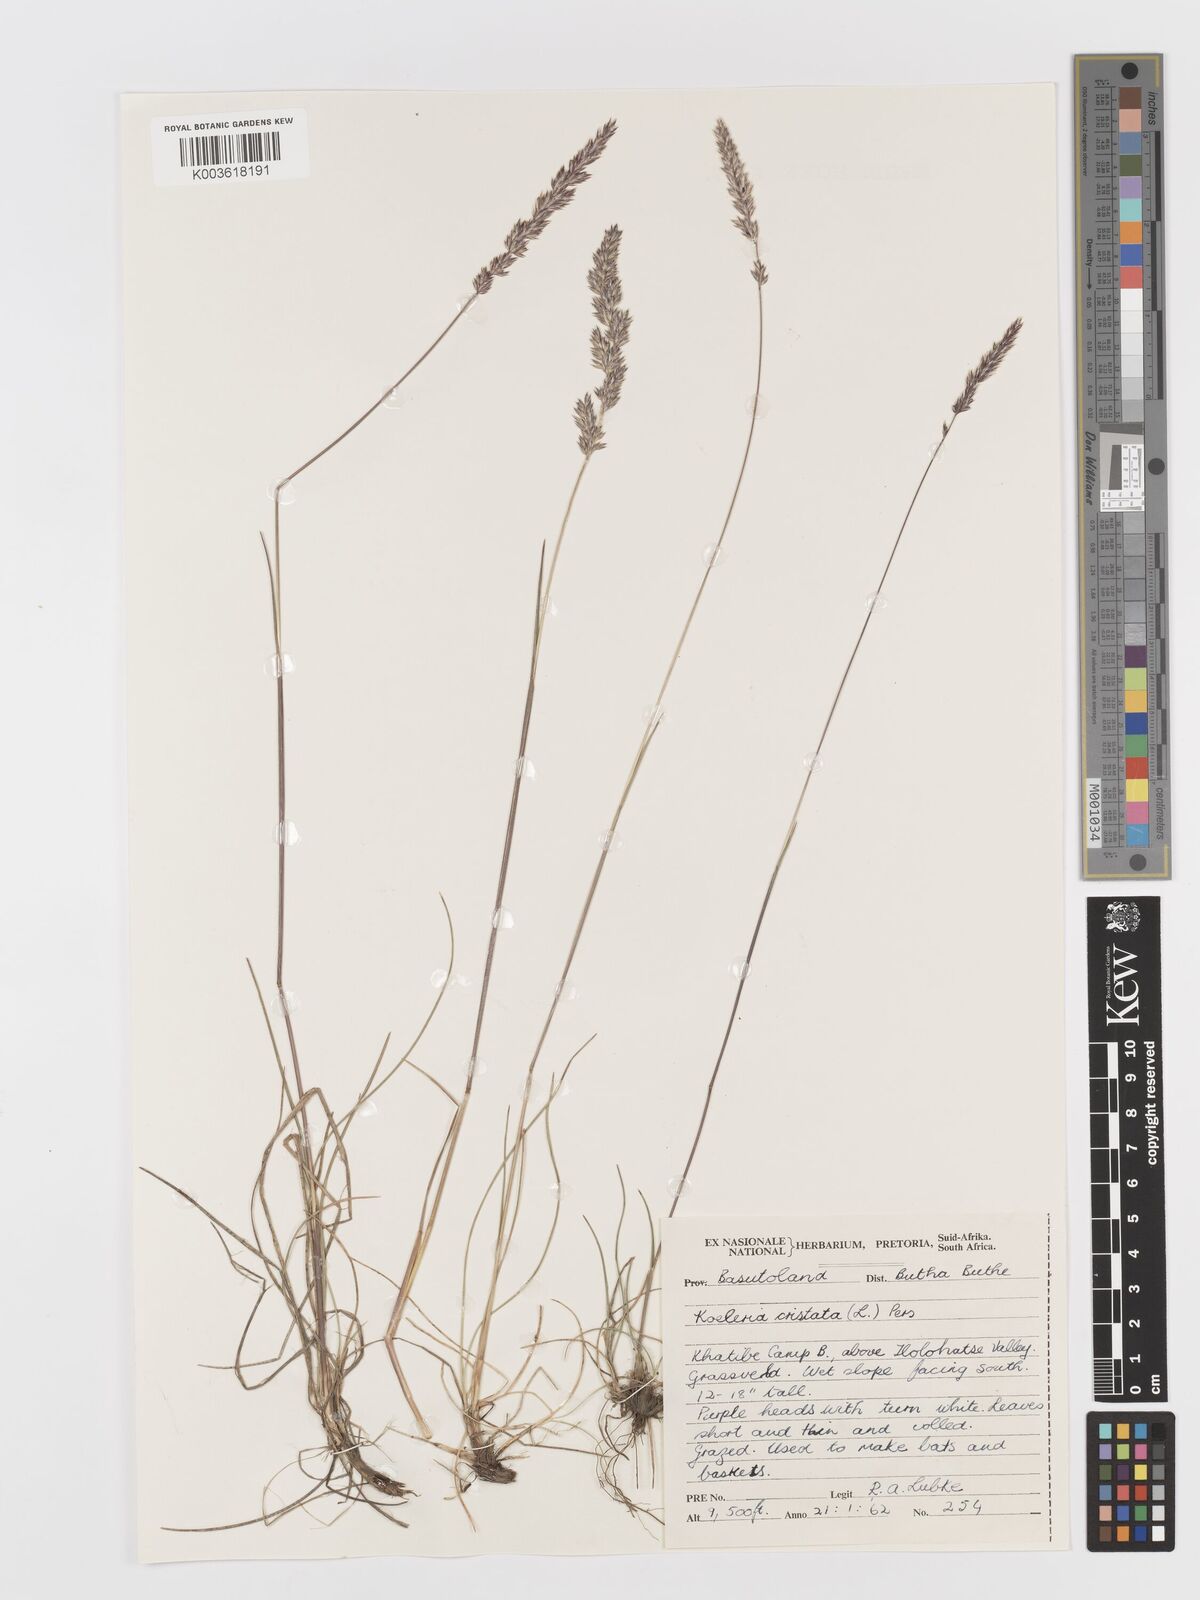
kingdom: Plantae
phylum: Tracheophyta
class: Liliopsida
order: Poales
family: Poaceae
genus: Koeleria
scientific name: Koeleria capensis
